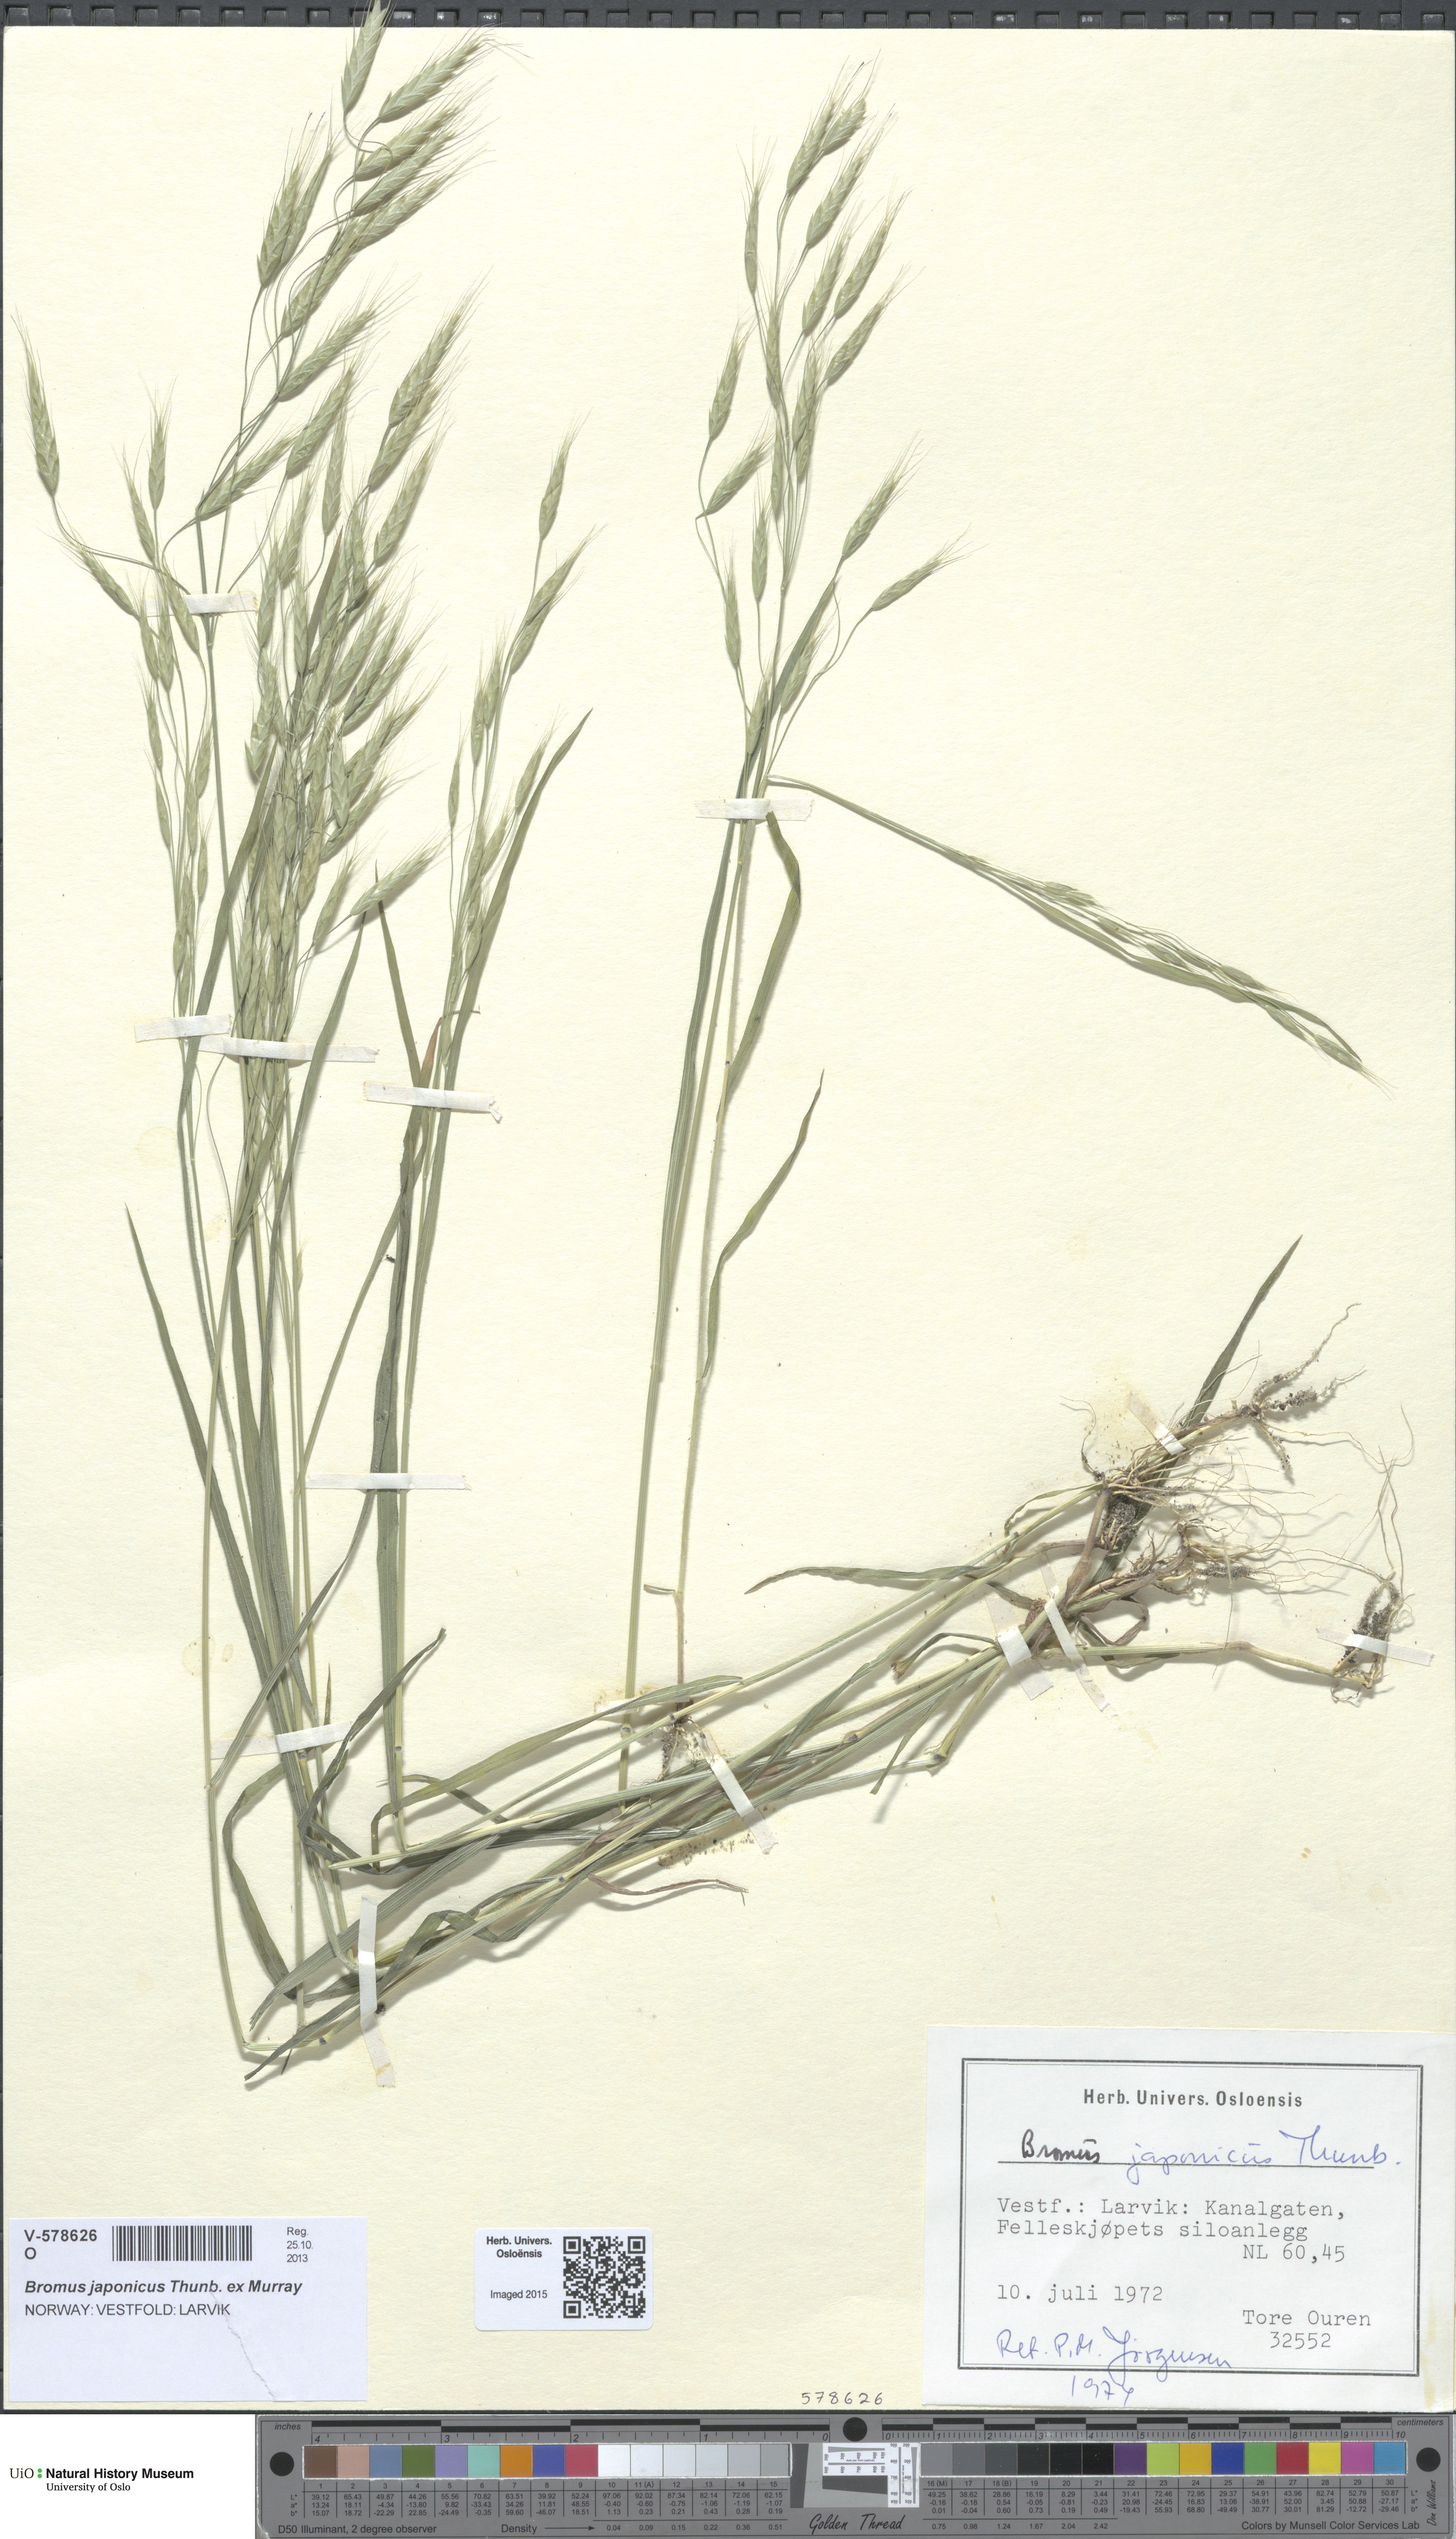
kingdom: Plantae
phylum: Tracheophyta
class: Liliopsida
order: Poales
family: Poaceae
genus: Bromus
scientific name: Bromus japonicus
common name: Japanese brome
